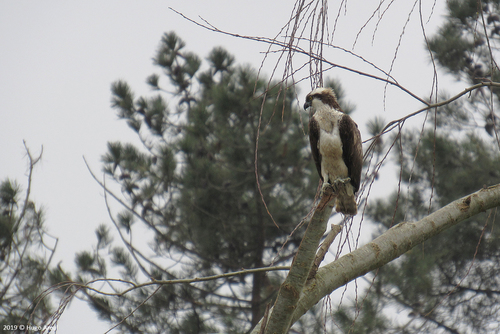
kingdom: Animalia
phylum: Chordata
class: Aves
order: Accipitriformes
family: Pandionidae
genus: Pandion
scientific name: Pandion haliaetus
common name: Osprey
